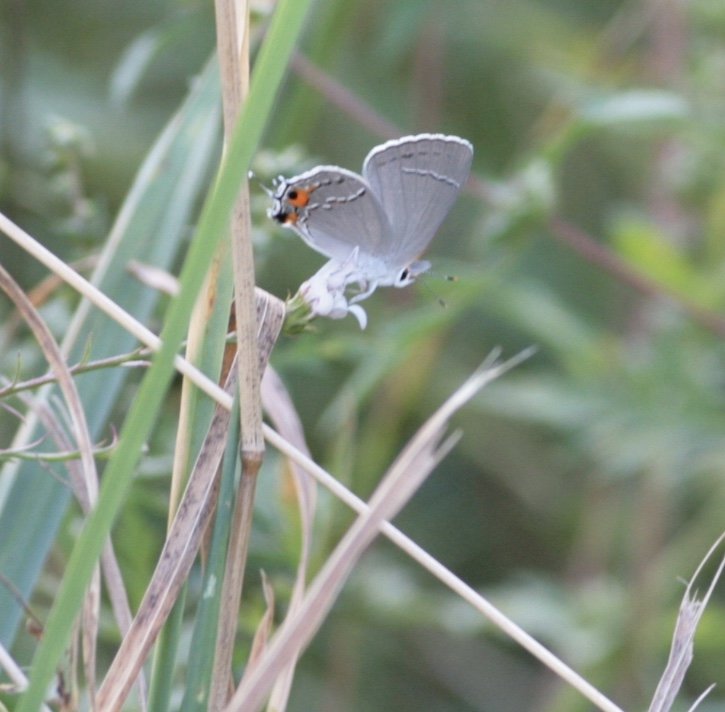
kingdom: Animalia
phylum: Arthropoda
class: Insecta
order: Lepidoptera
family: Lycaenidae
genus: Strymon
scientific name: Strymon melinus
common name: Gray Hairstreak
